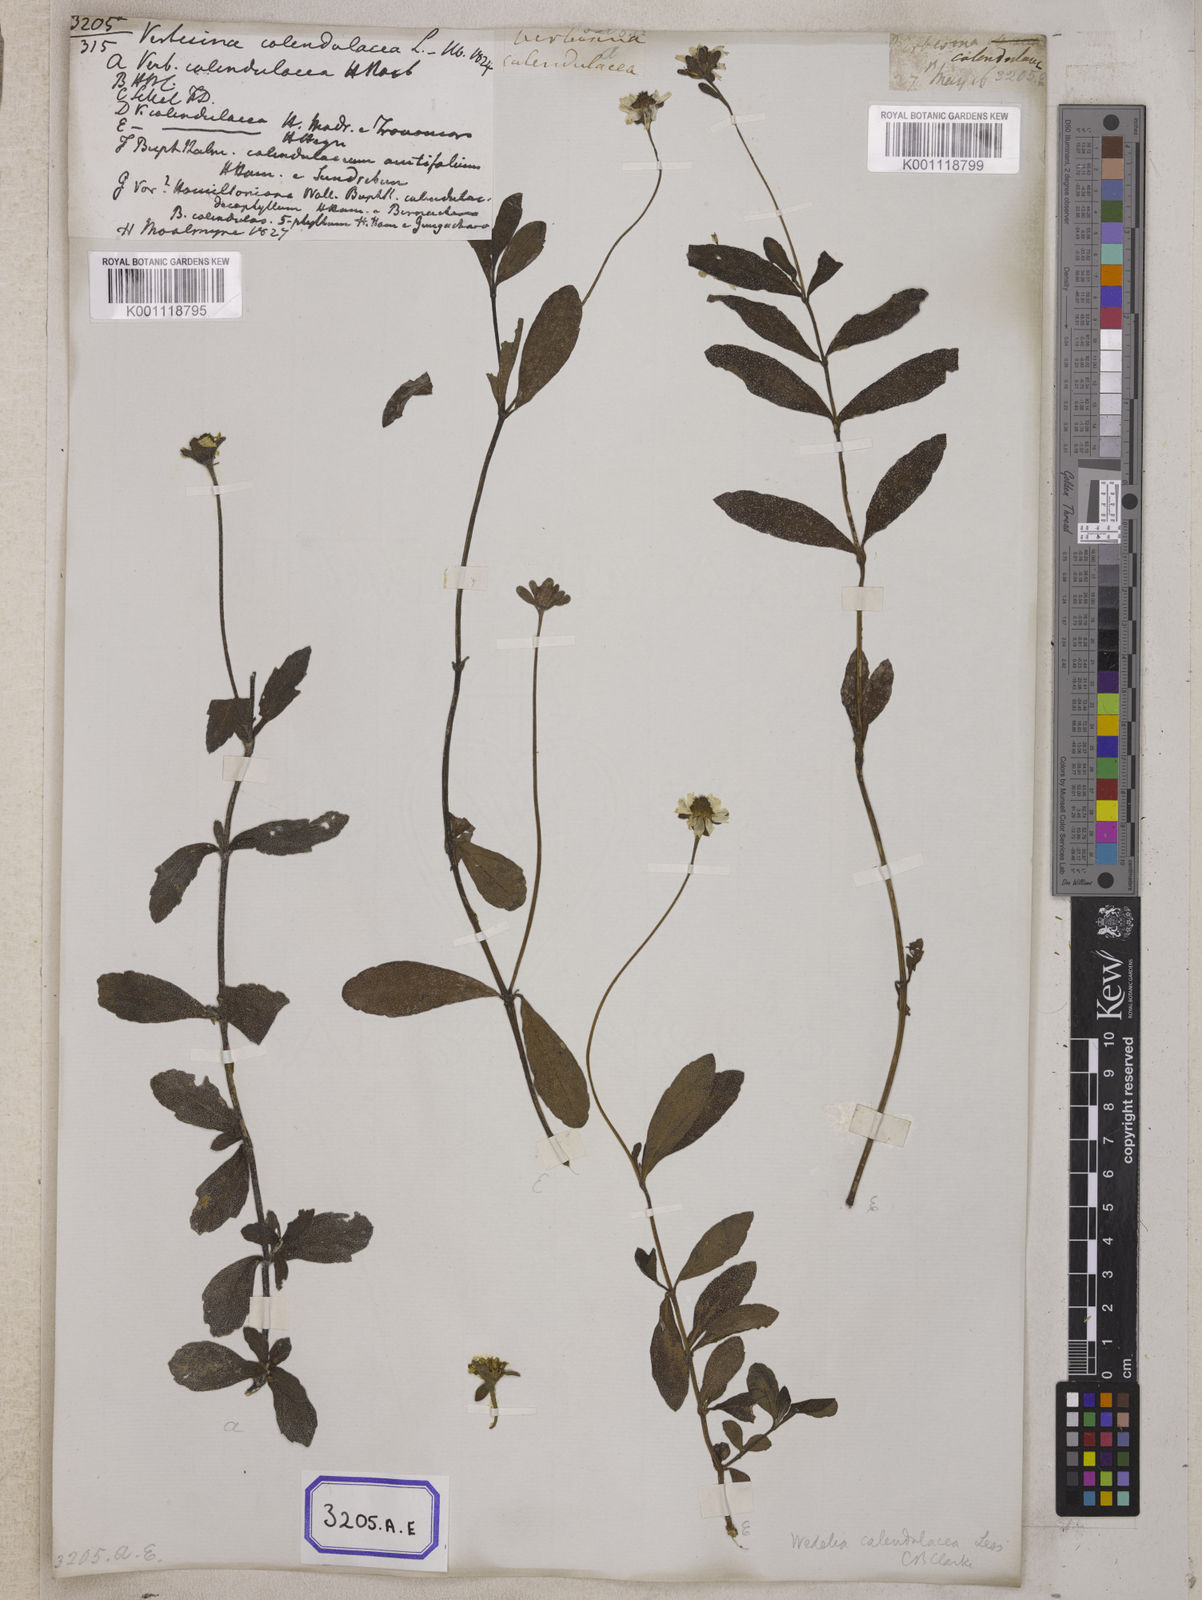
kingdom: Plantae
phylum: Tracheophyta
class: Magnoliopsida
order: Asterales
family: Asteraceae
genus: Sphagneticola
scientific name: Sphagneticola calendulacea
